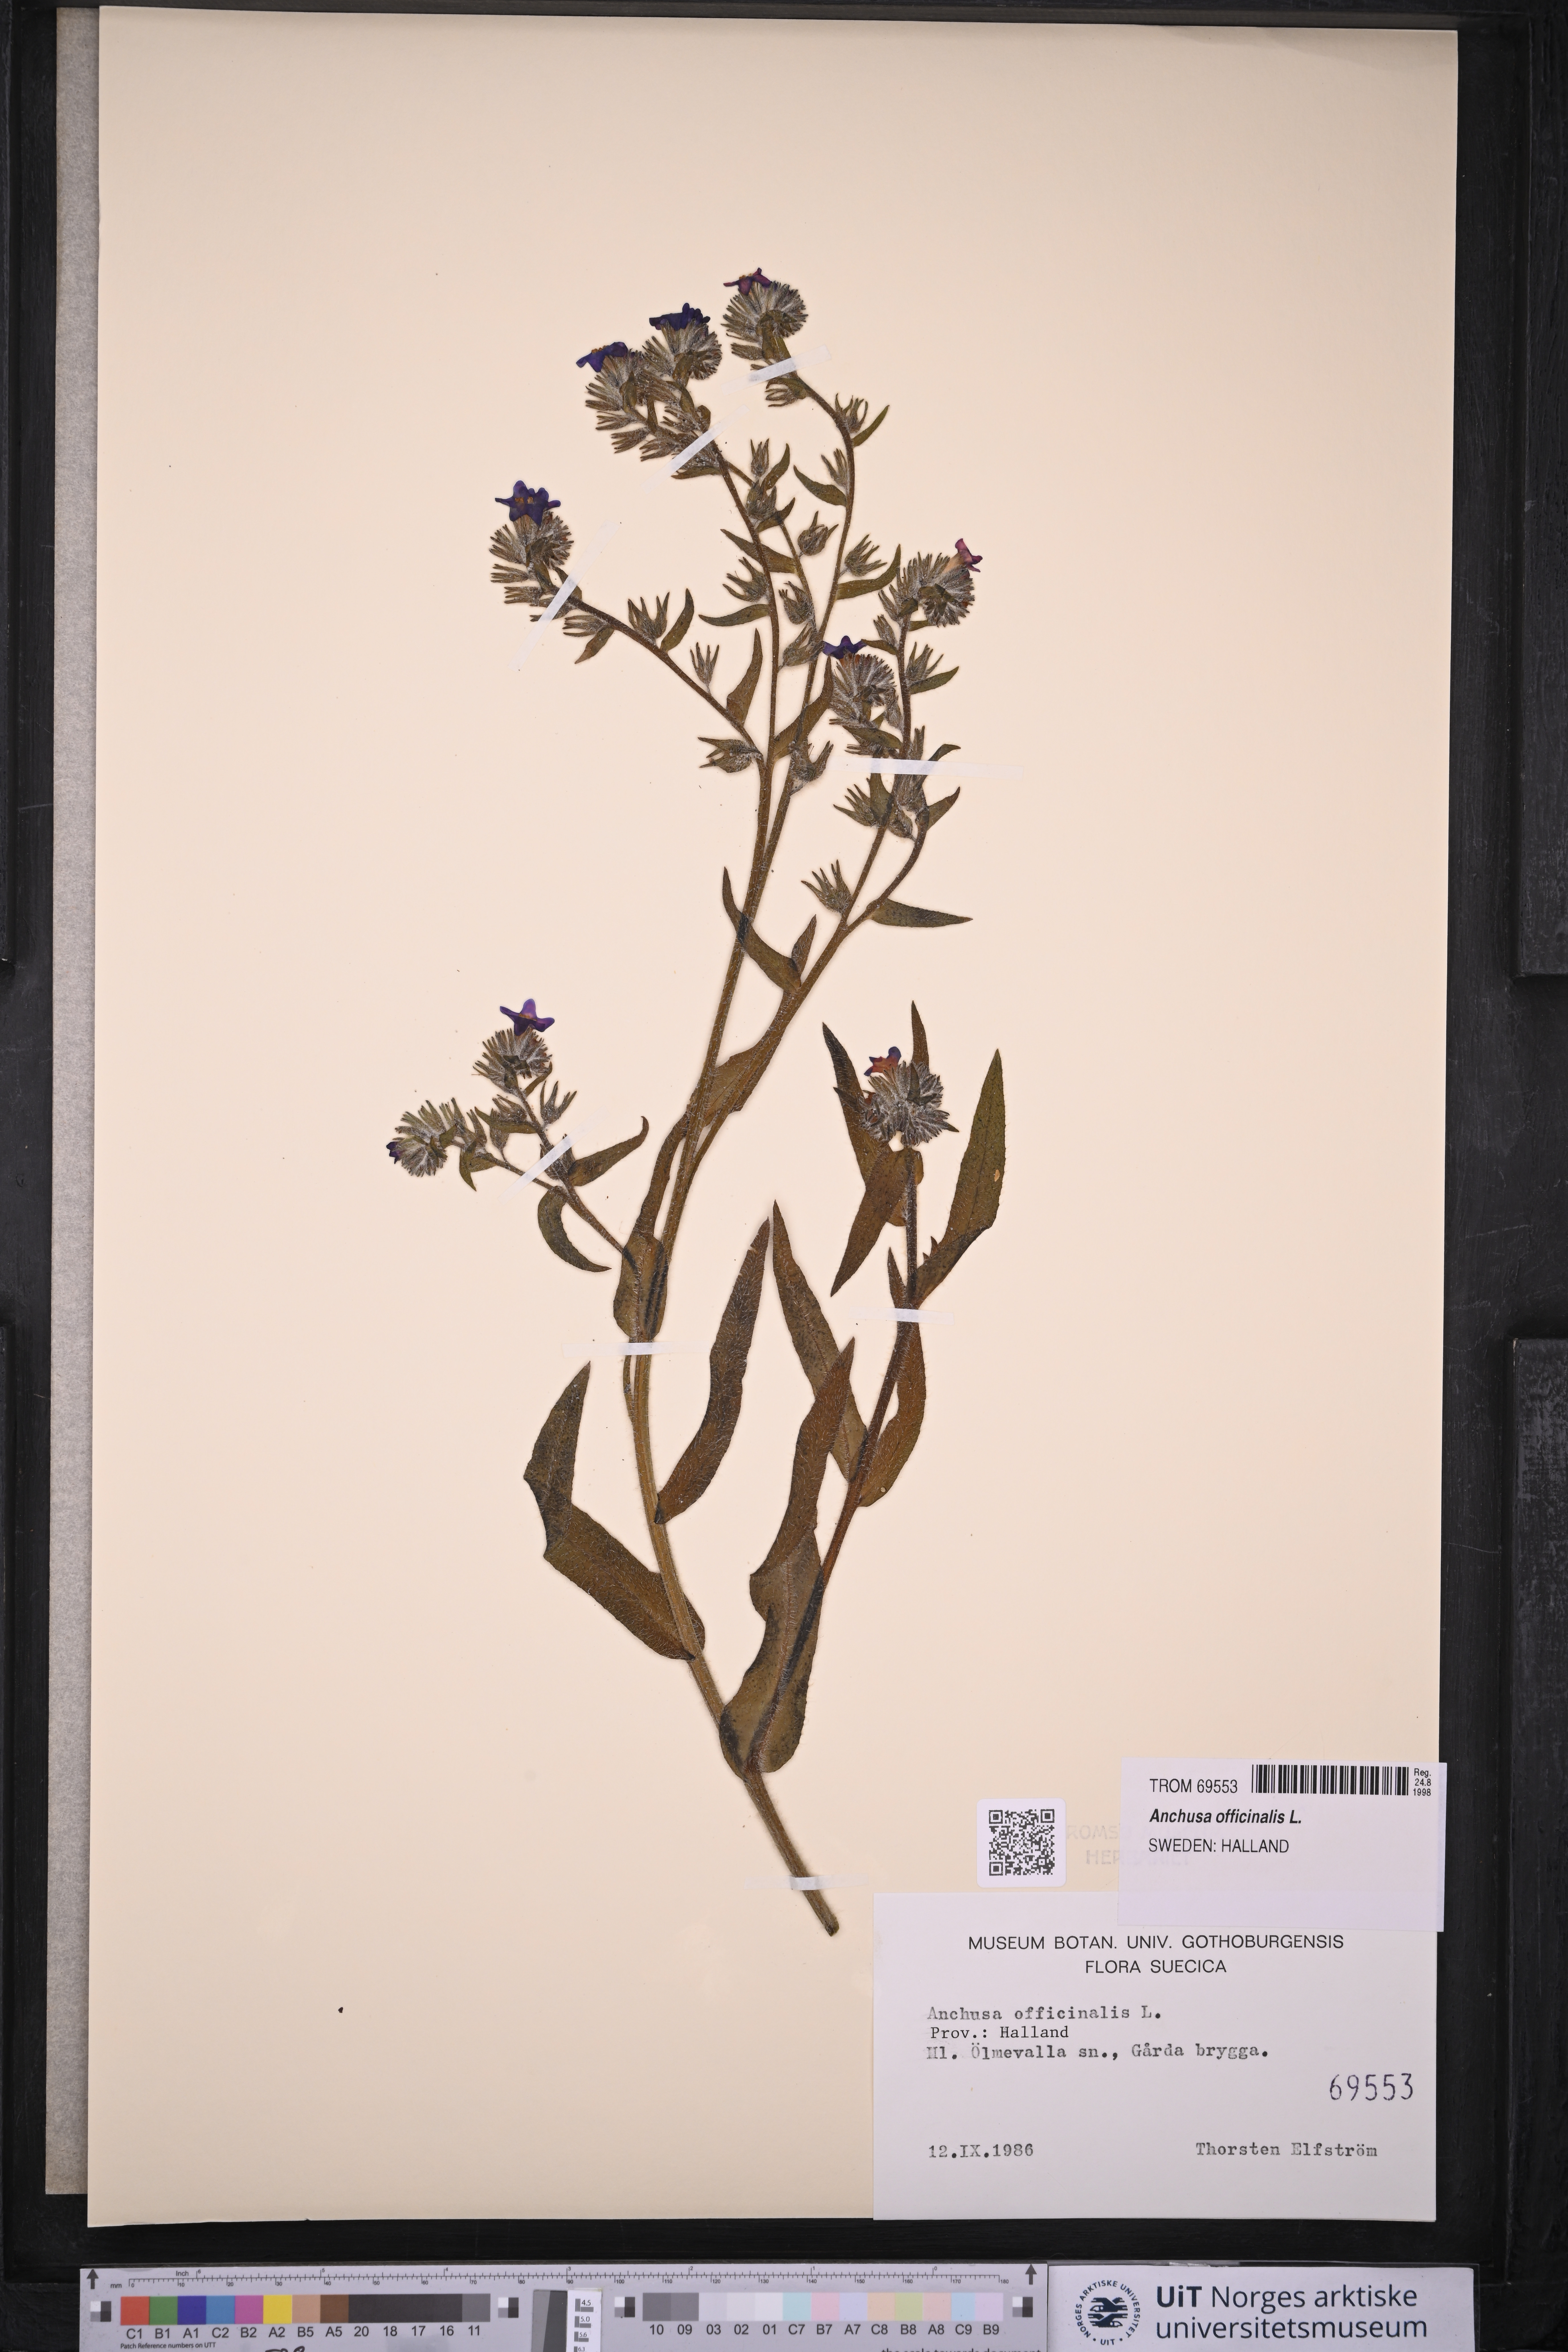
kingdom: Plantae
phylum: Tracheophyta
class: Magnoliopsida
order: Boraginales
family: Boraginaceae
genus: Anchusa
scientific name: Anchusa officinalis
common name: Alkanet
